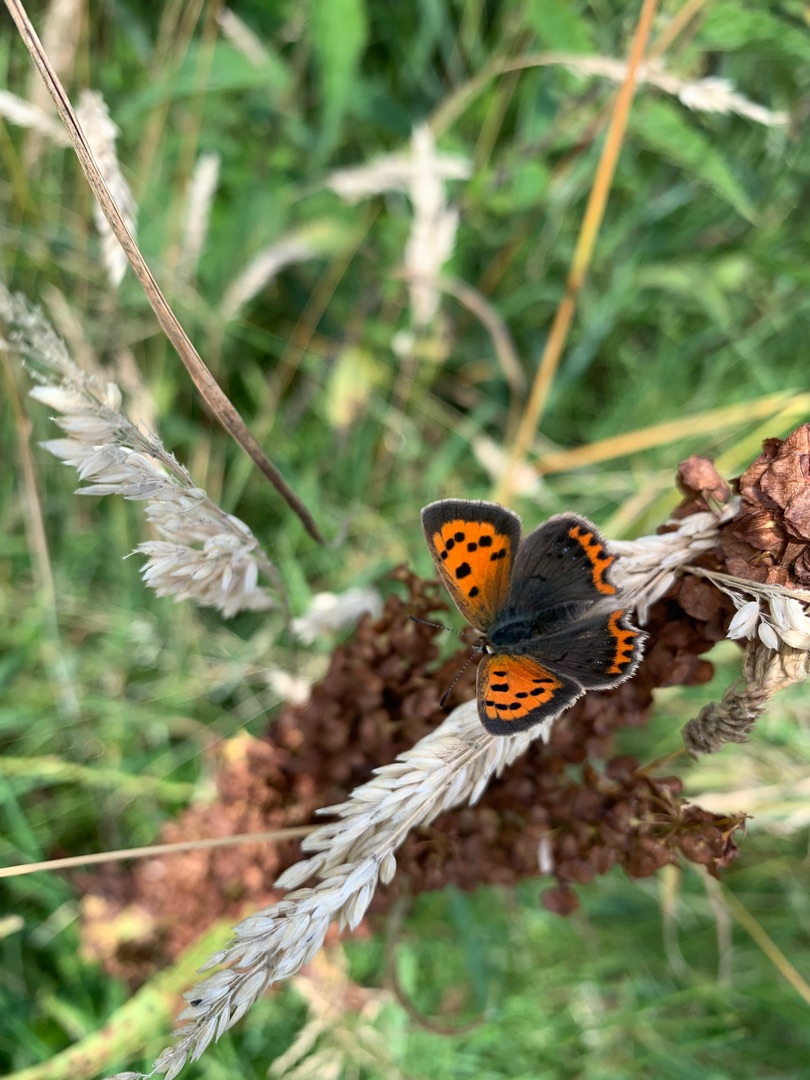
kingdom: Animalia
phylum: Arthropoda
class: Insecta
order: Lepidoptera
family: Lycaenidae
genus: Lycaena
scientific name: Lycaena phlaeas
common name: Lille ildfugl
